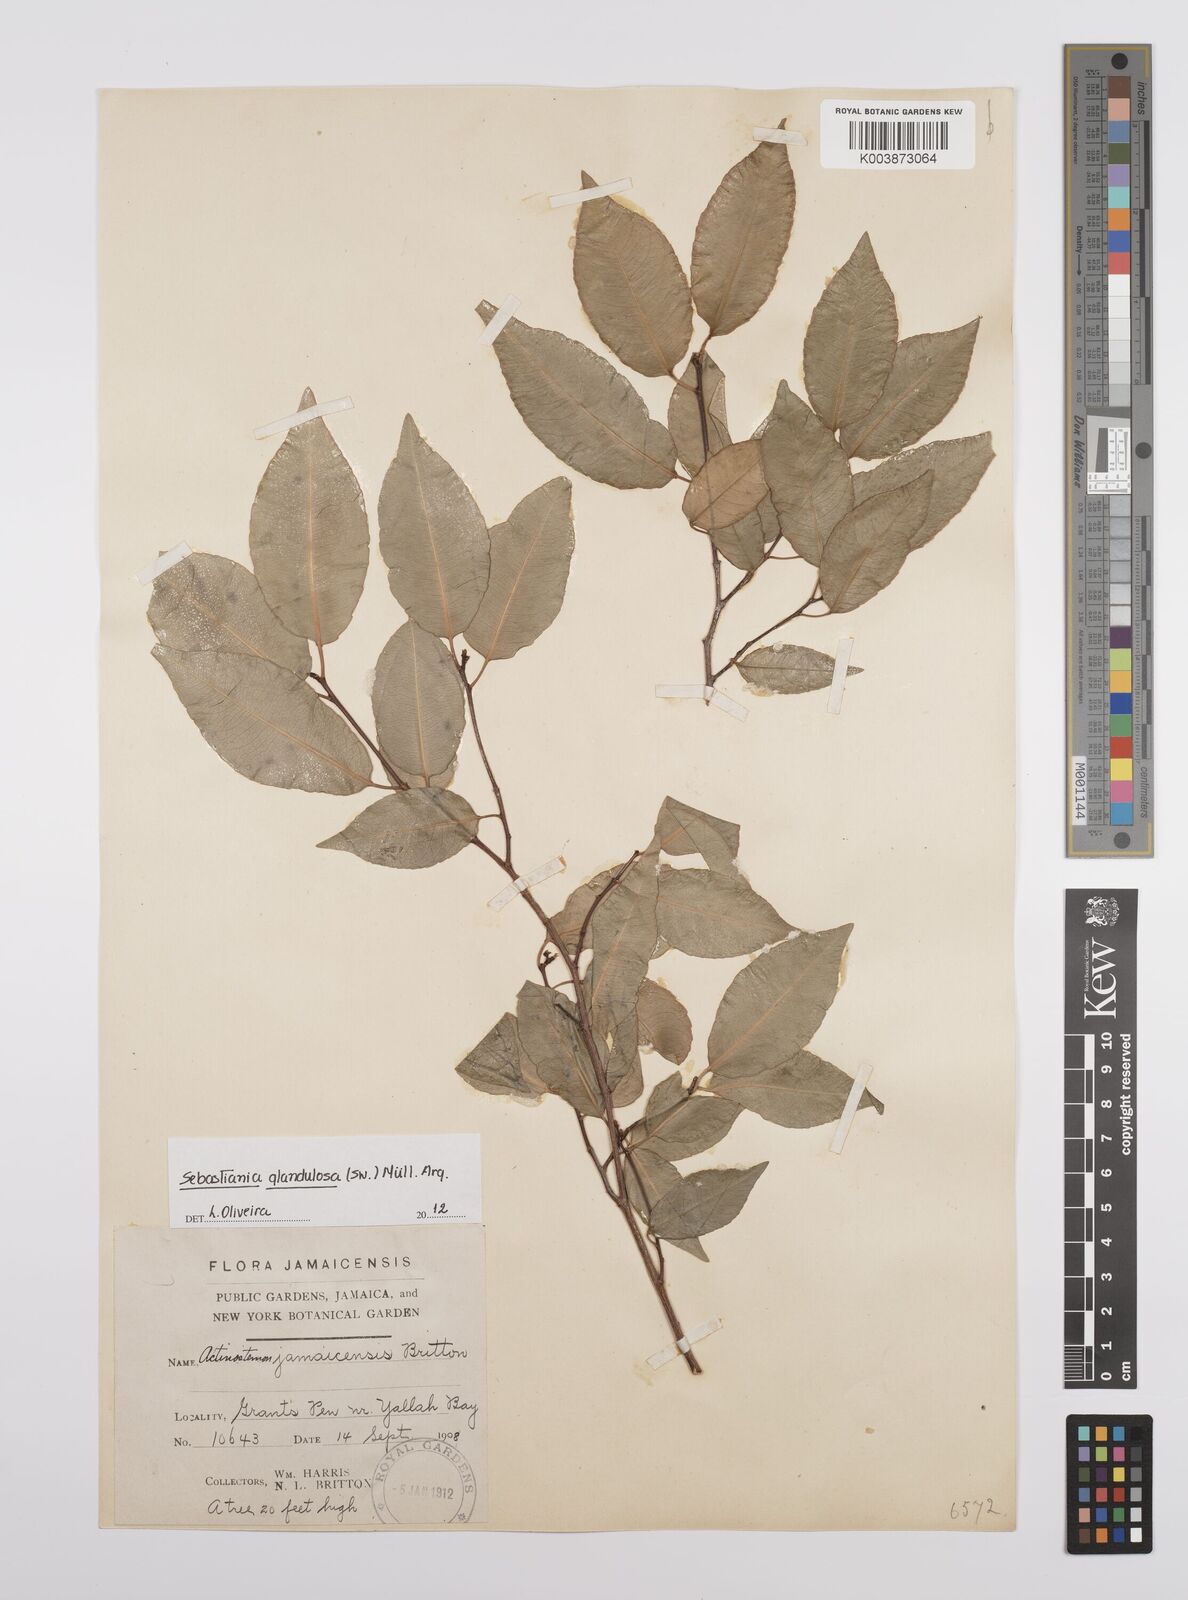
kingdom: Plantae
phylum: Tracheophyta
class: Magnoliopsida
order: Malpighiales
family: Euphorbiaceae
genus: Sebastiania
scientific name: Sebastiania glandulosa
